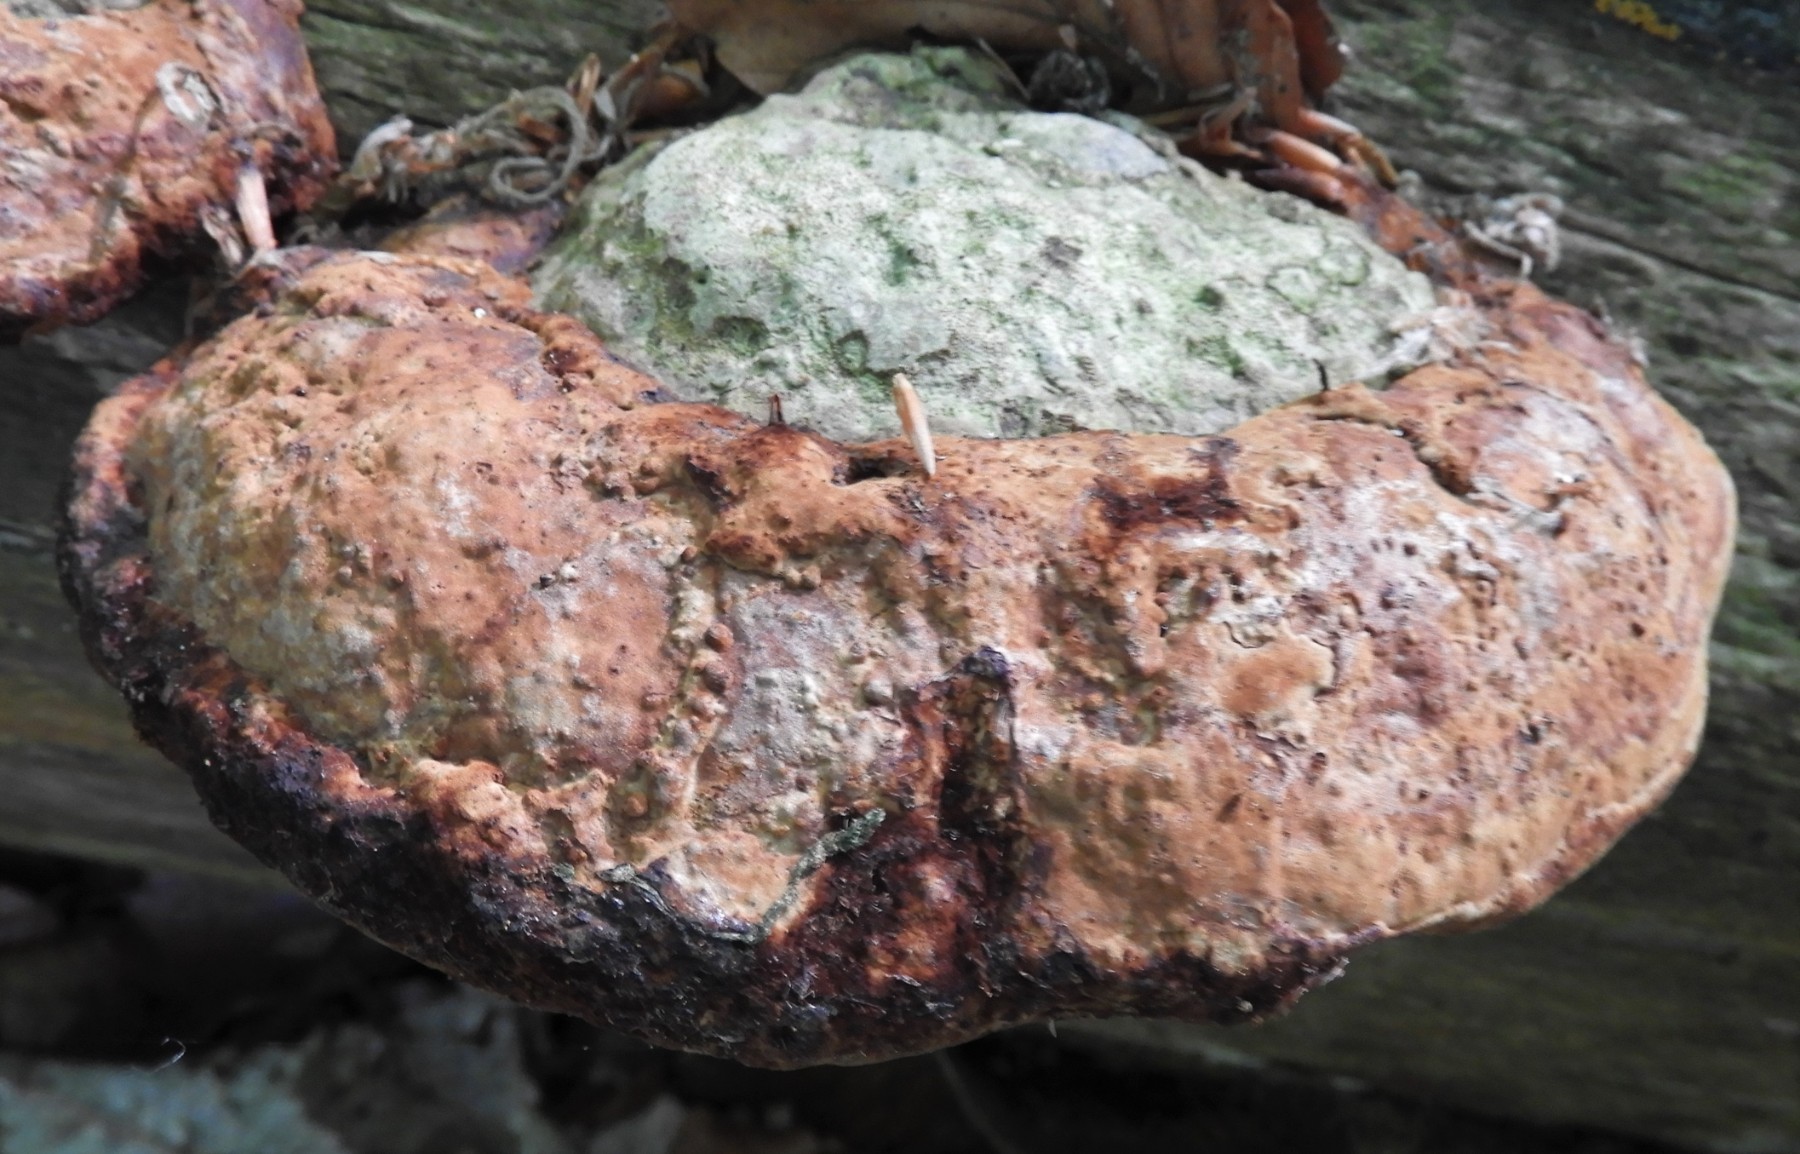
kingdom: Fungi
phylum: Basidiomycota
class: Agaricomycetes
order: Polyporales
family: Fomitopsidaceae
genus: Fomitopsis
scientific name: Fomitopsis pinicola
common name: randbæltet hovporesvamp
